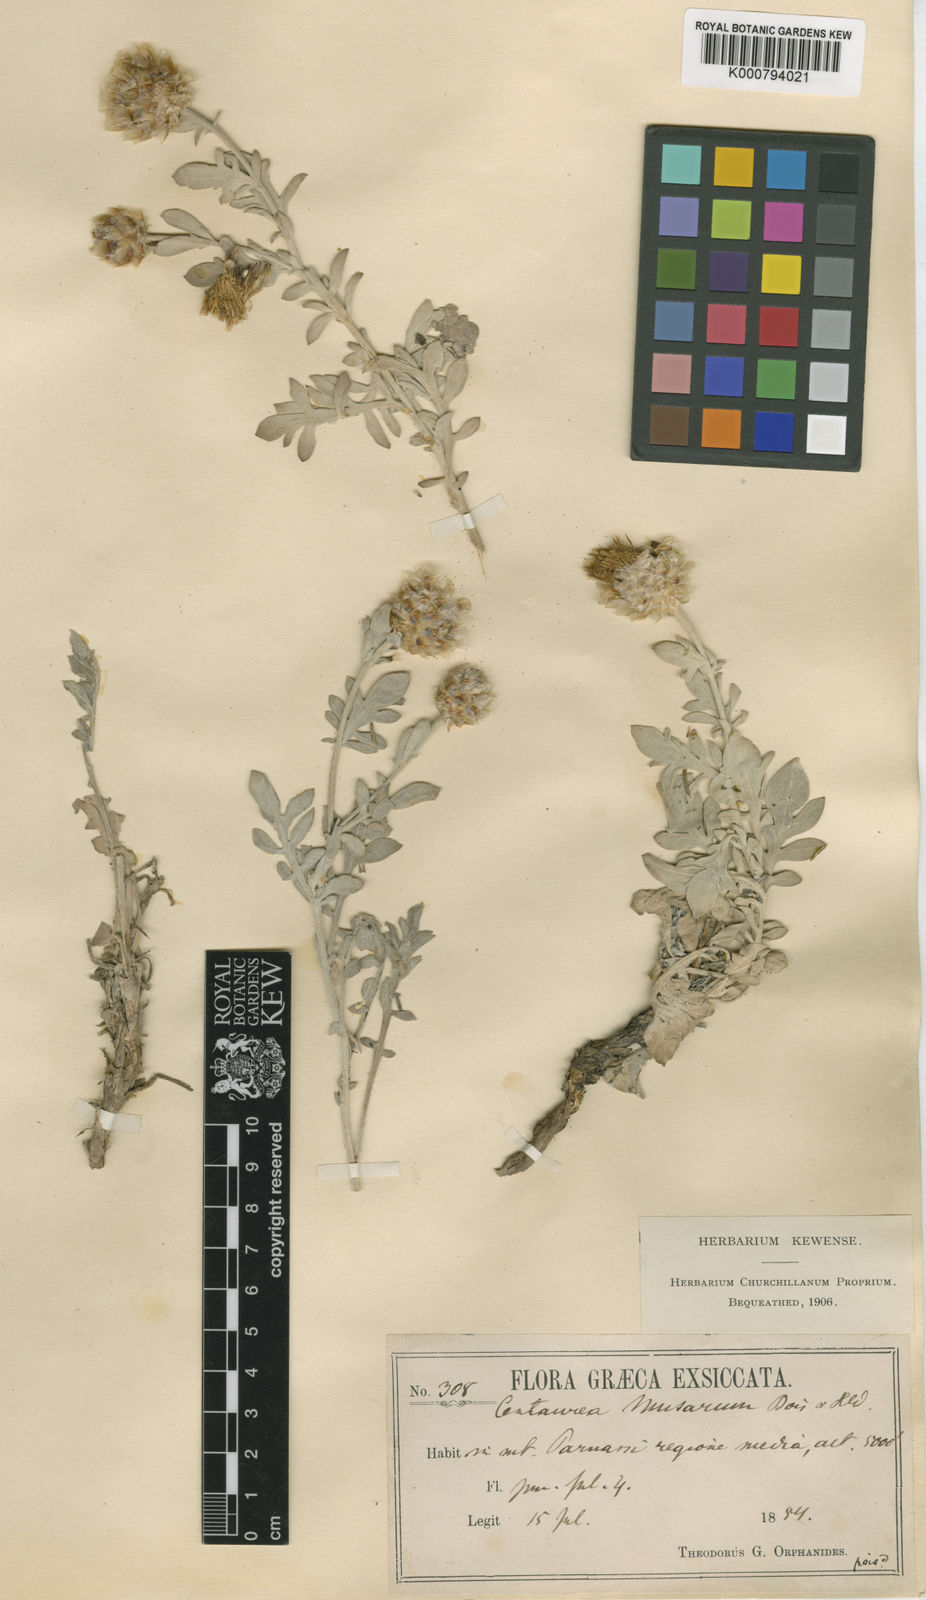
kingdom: Plantae
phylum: Tracheophyta
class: Magnoliopsida
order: Asterales
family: Asteraceae
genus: Centaurea
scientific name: Centaurea musarum
